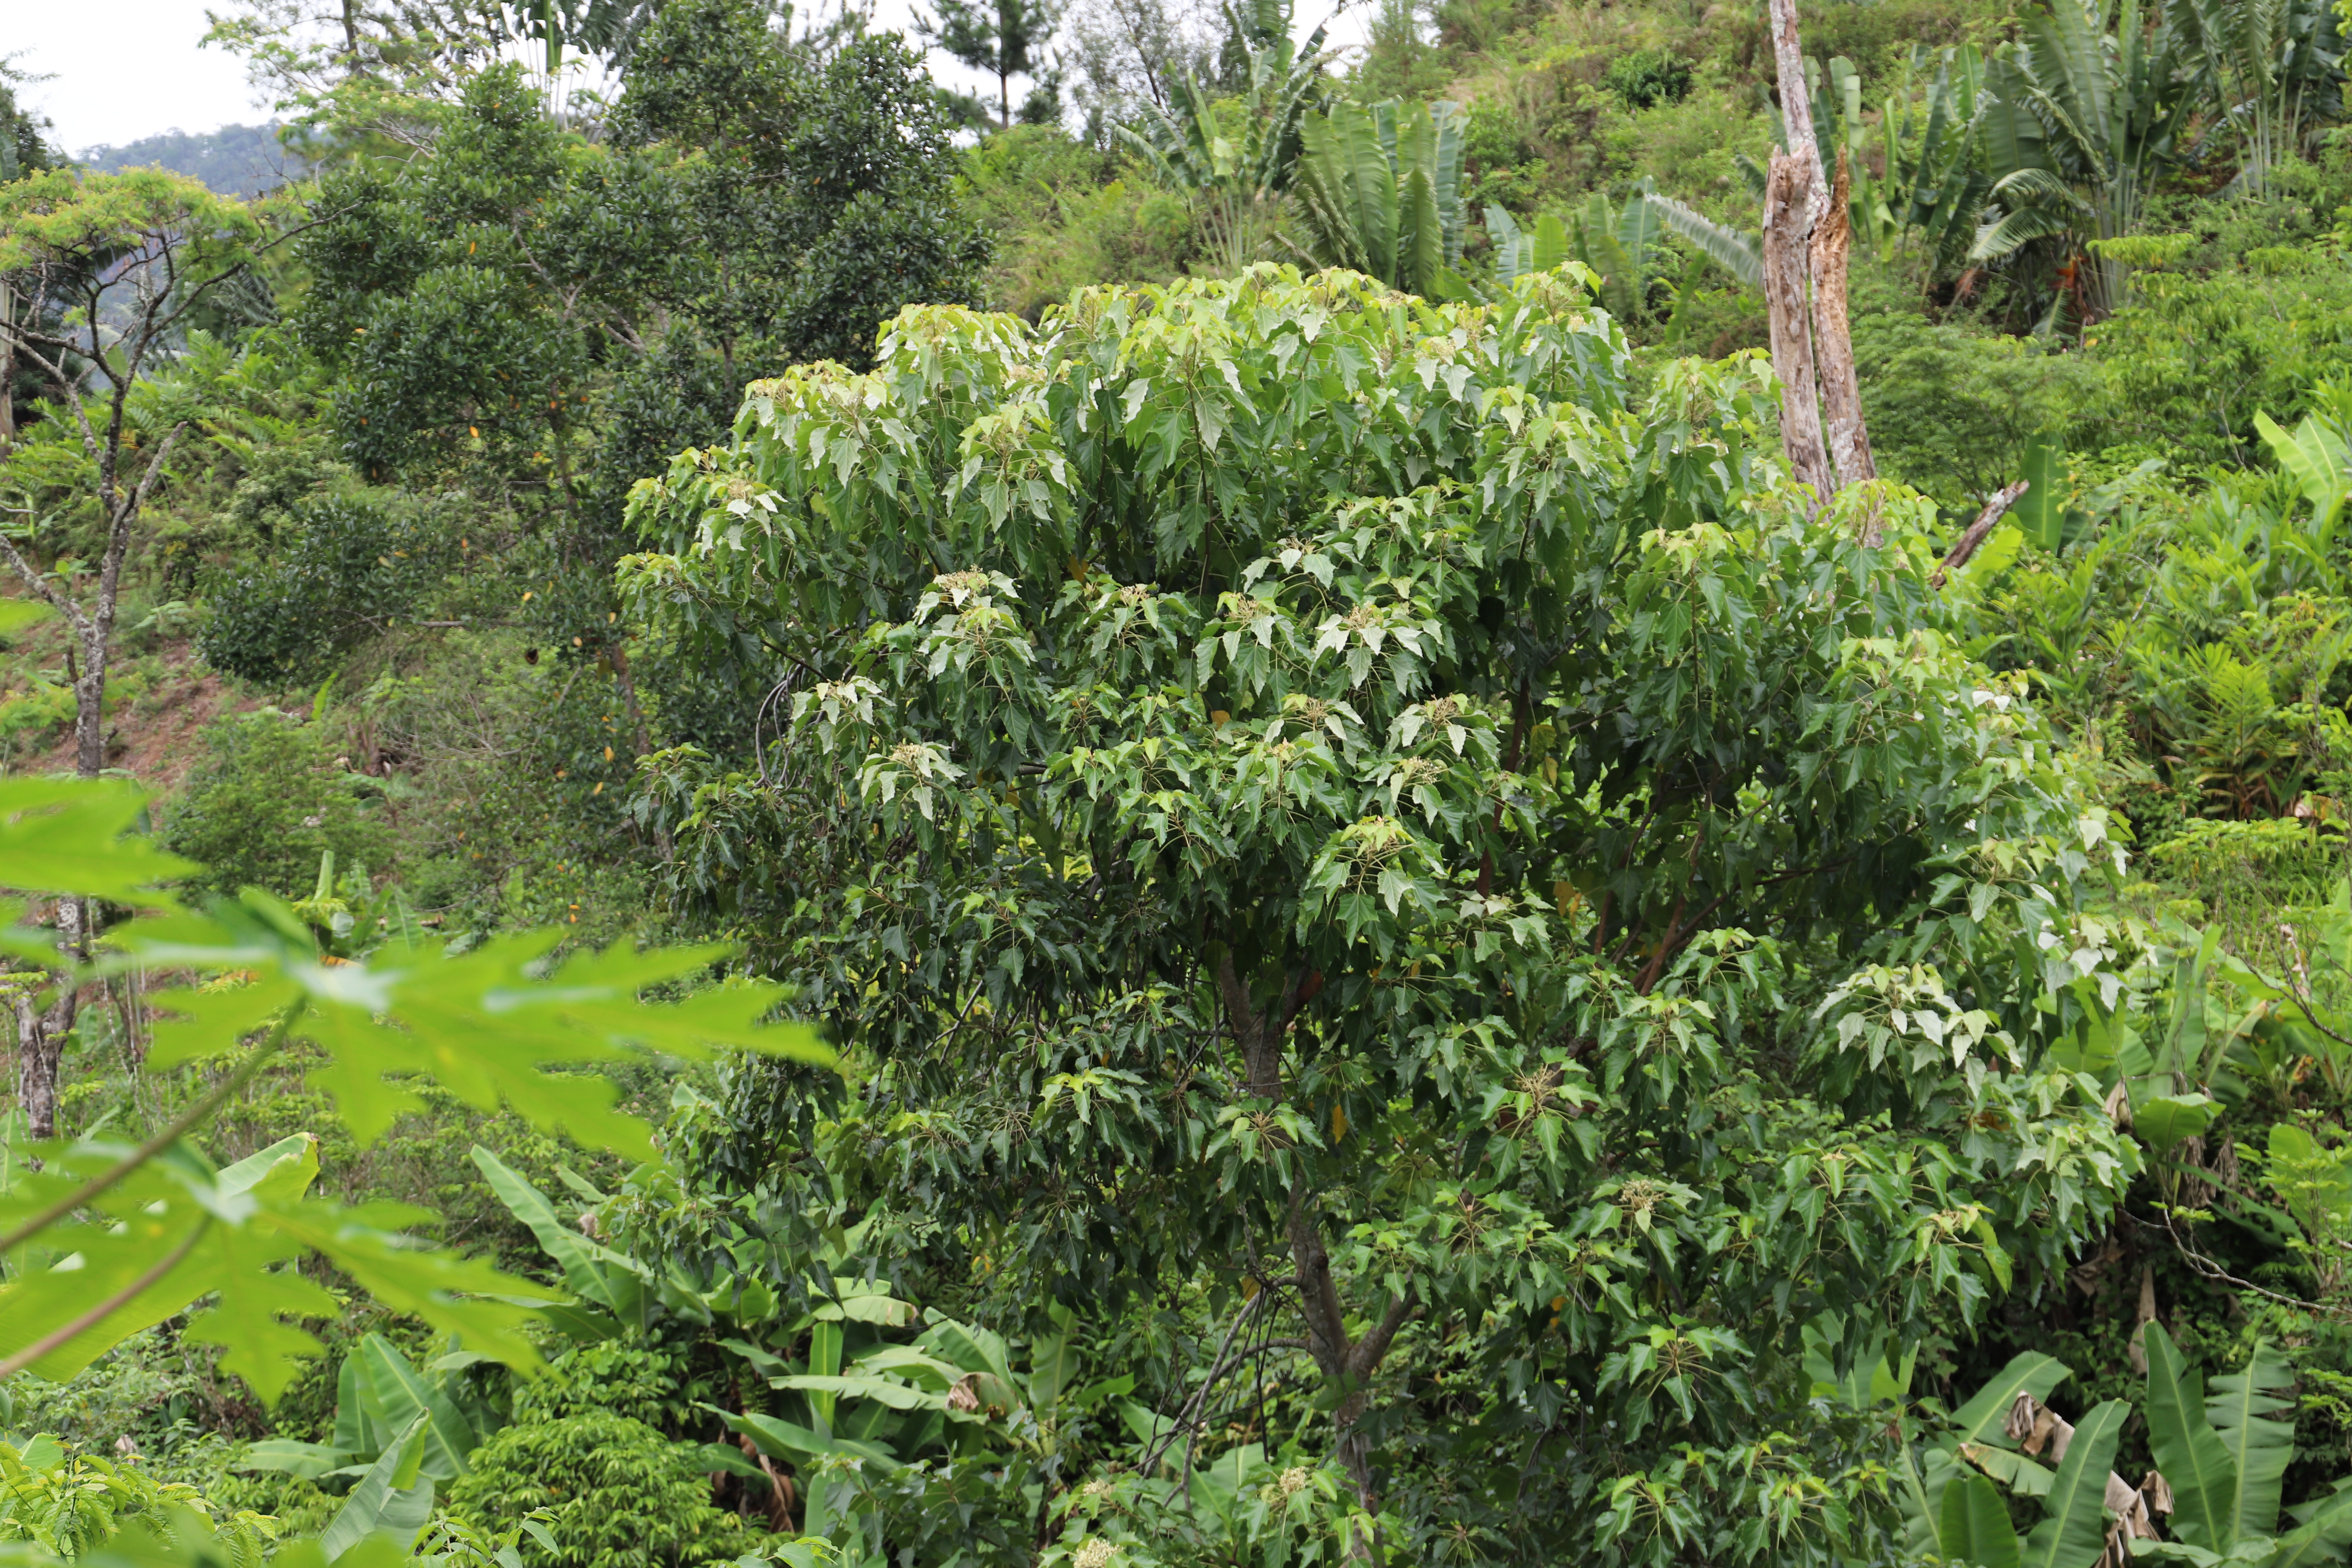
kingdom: Plantae
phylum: Tracheophyta
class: Magnoliopsida
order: Malpighiales
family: Euphorbiaceae
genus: Aleurites
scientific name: Aleurites moluccanus
